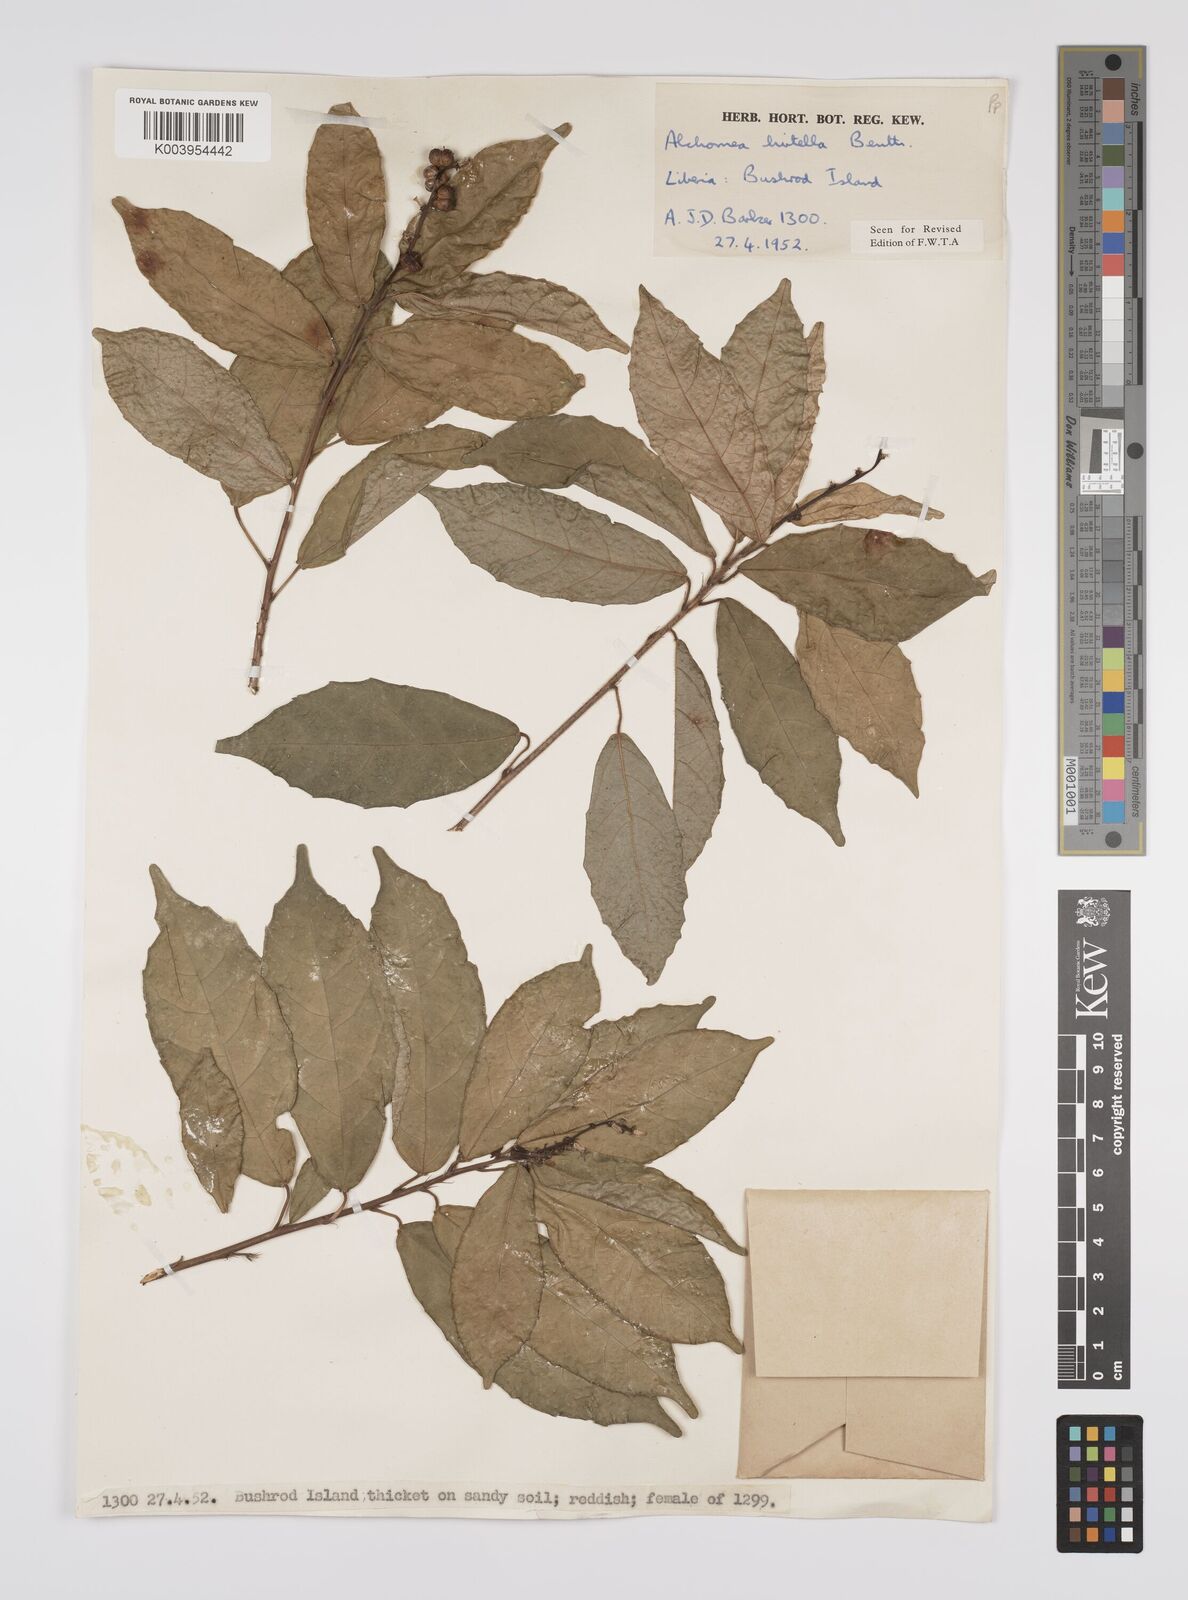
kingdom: Plantae
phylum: Tracheophyta
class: Magnoliopsida
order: Malpighiales
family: Euphorbiaceae
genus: Alchornea
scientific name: Alchornea hirtella
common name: Forest bead-string
